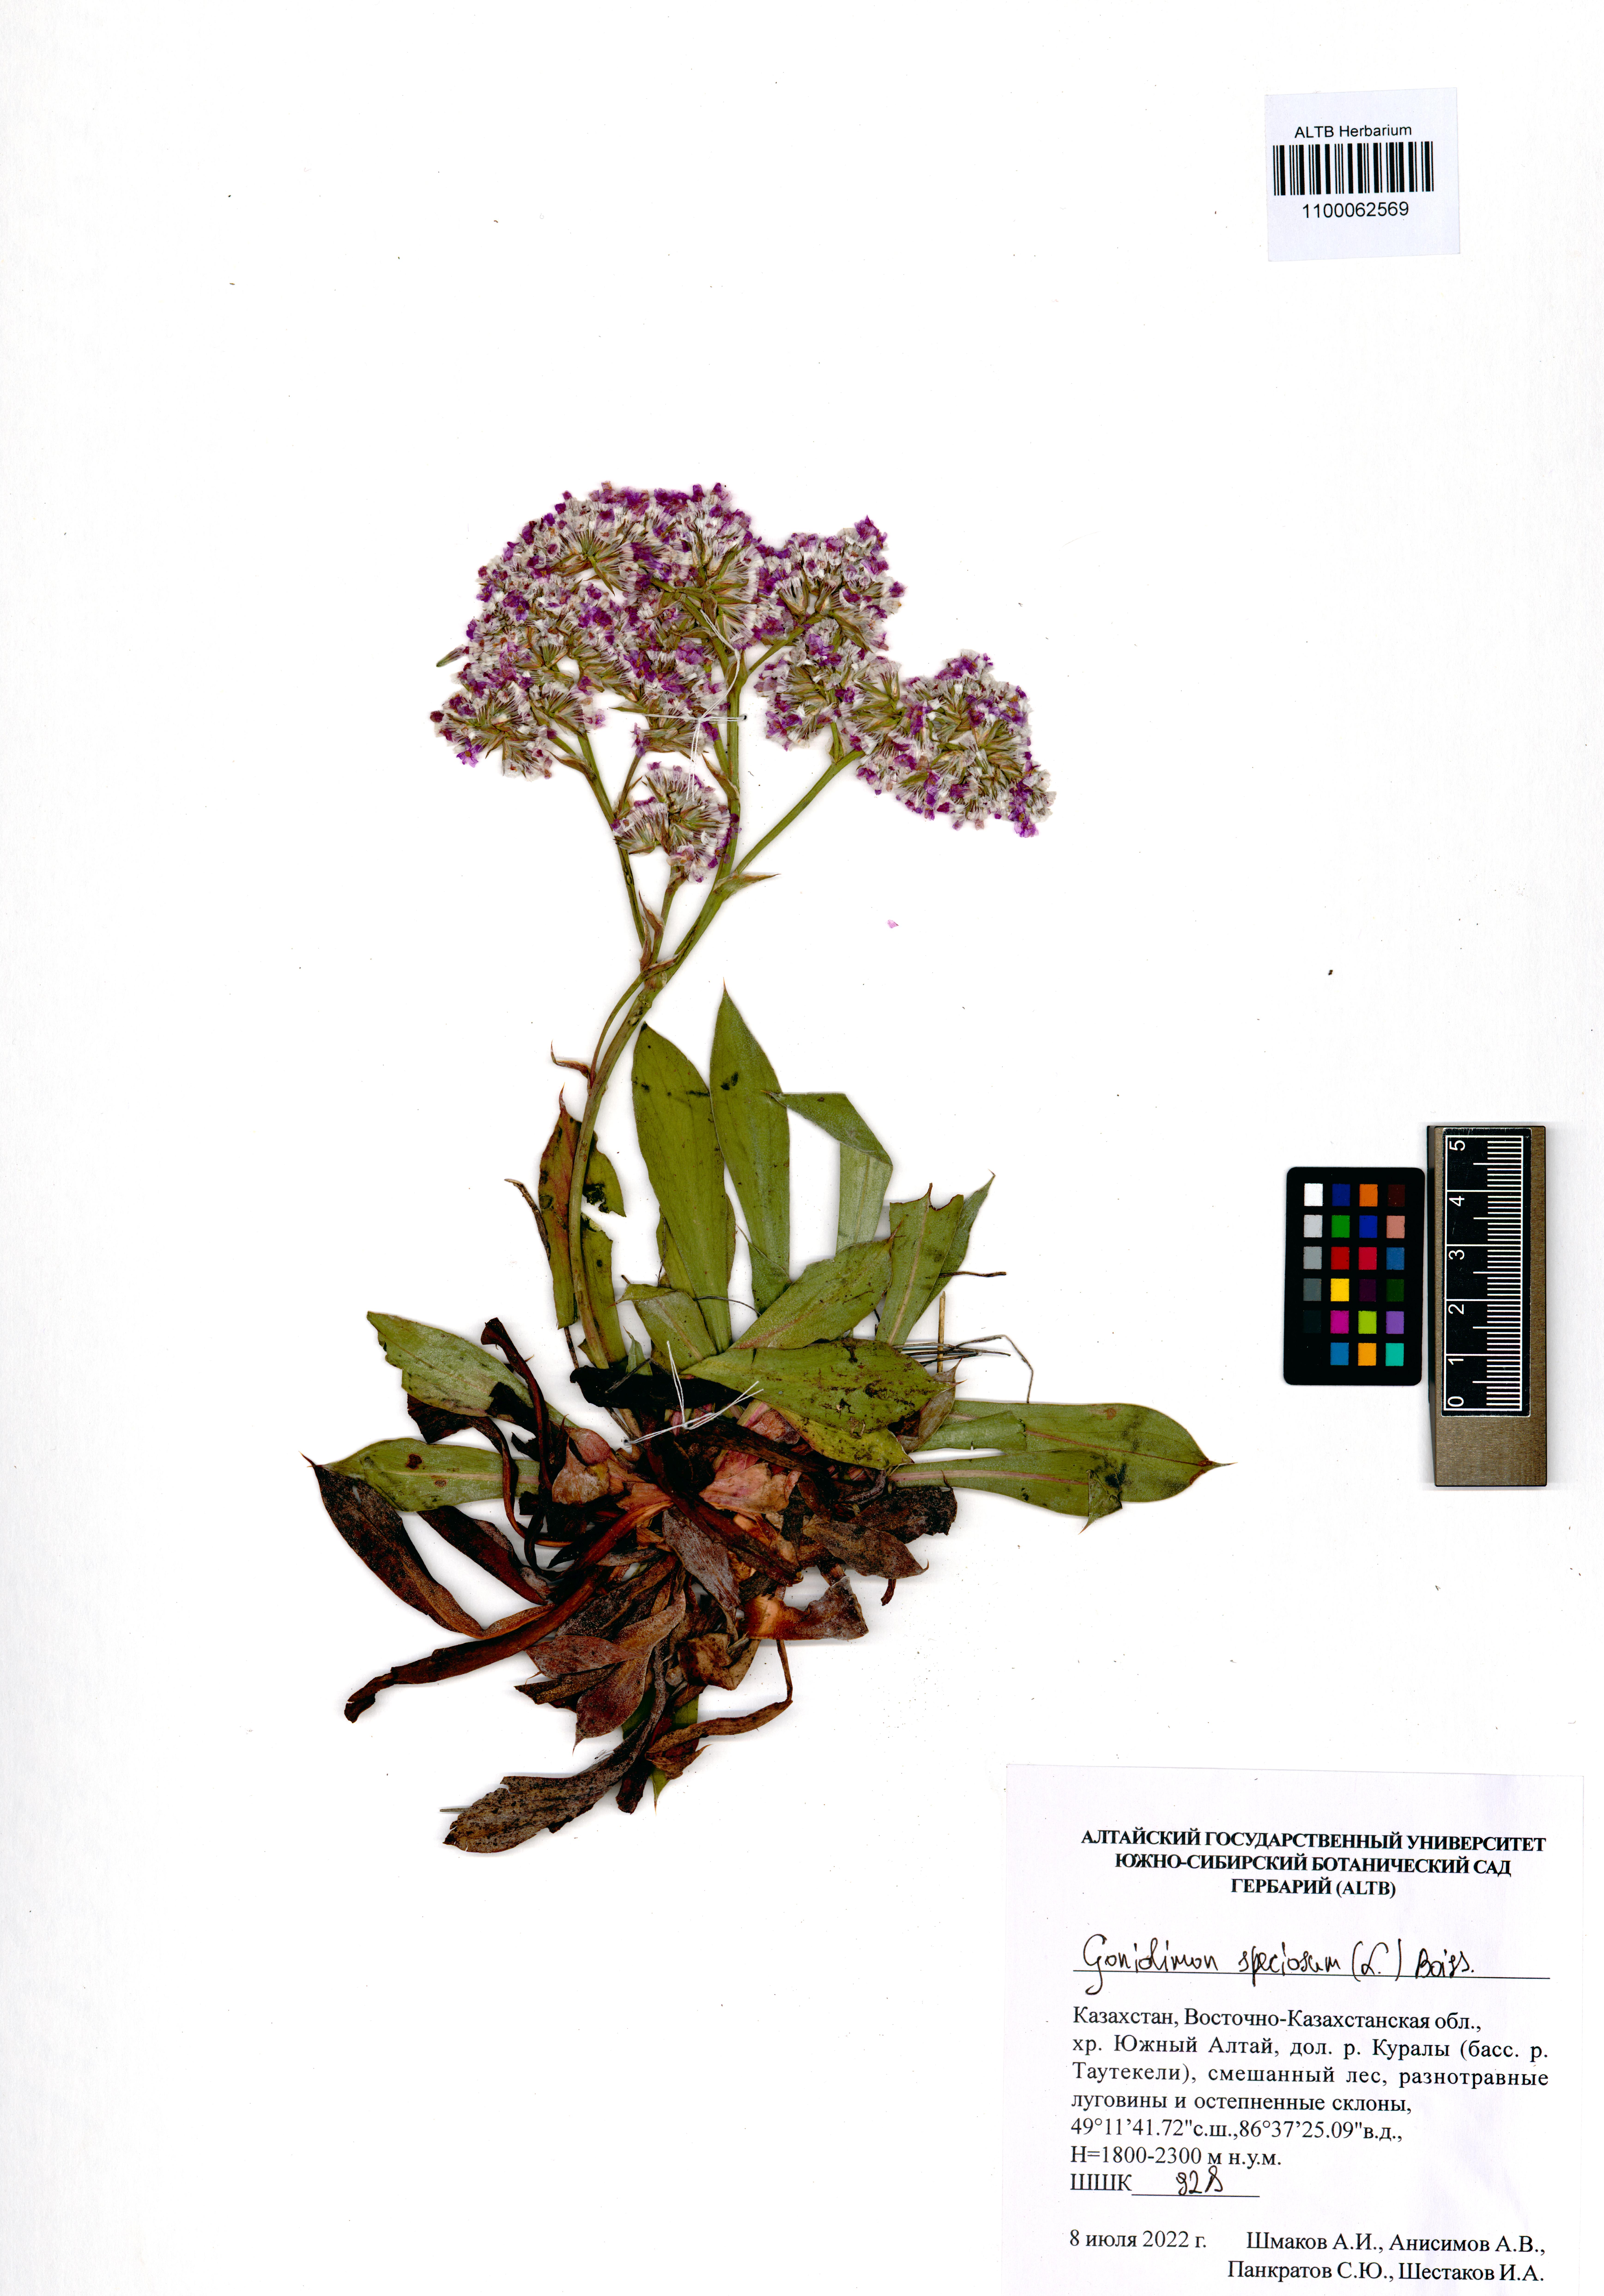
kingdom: Plantae
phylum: Tracheophyta
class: Magnoliopsida
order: Caryophyllales
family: Plumbaginaceae
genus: Goniolimon
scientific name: Goniolimon speciosum
